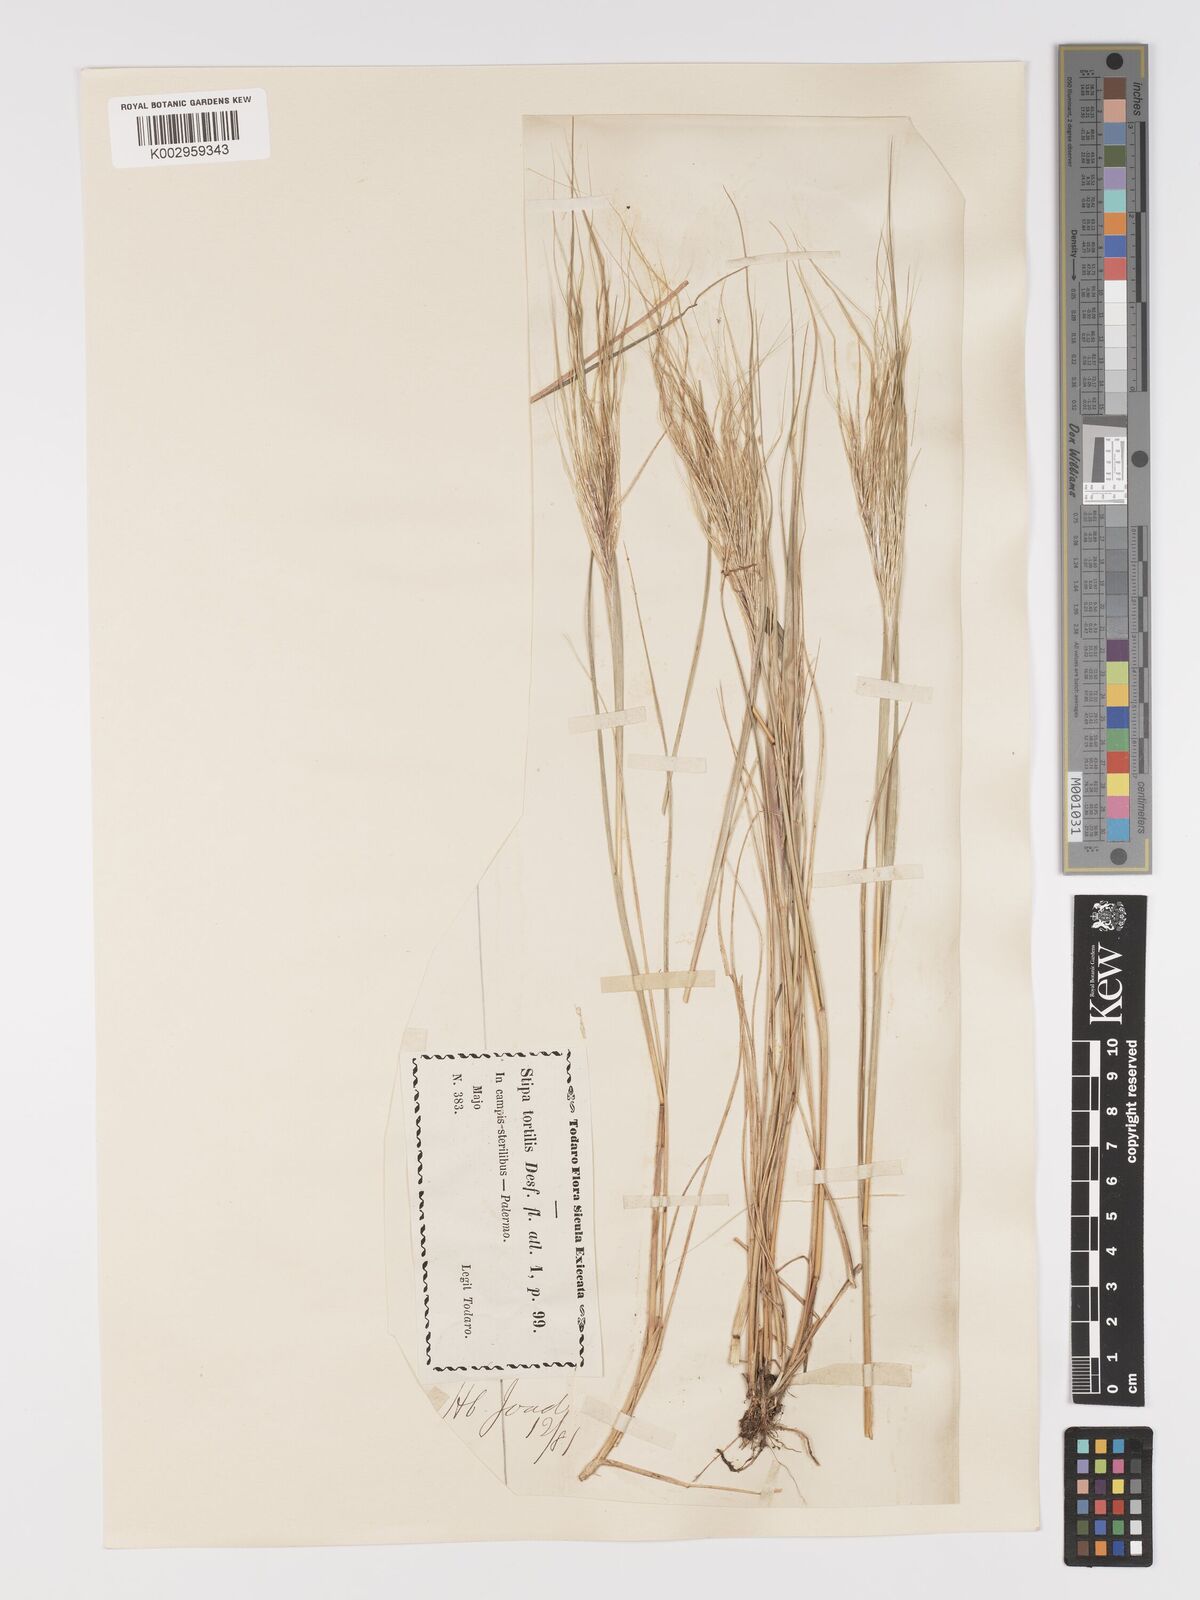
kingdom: Plantae
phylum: Tracheophyta
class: Liliopsida
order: Poales
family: Poaceae
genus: Stipellula
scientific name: Stipellula capensis
